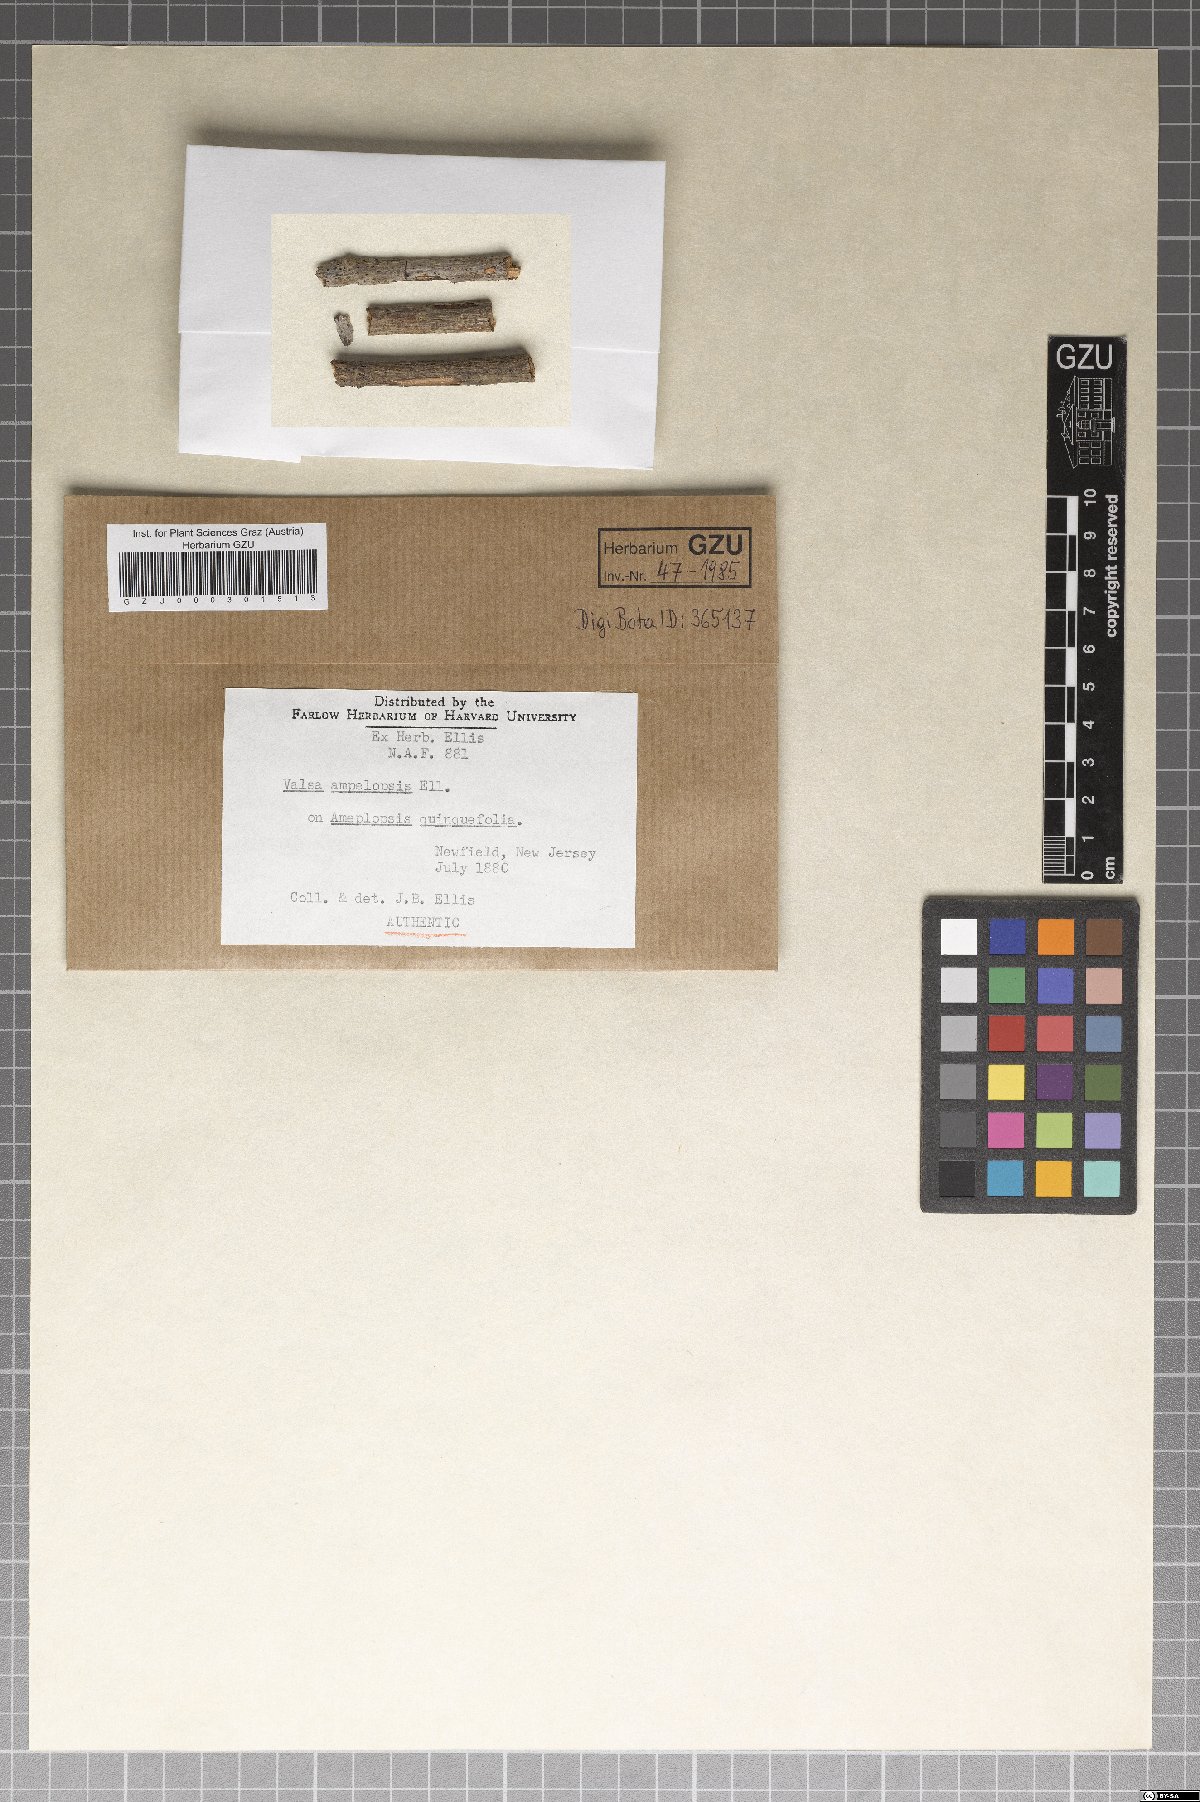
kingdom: Fungi
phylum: Ascomycota
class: Sordariomycetes
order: Diaporthales
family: Valsaceae
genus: Valsa
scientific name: Valsa
